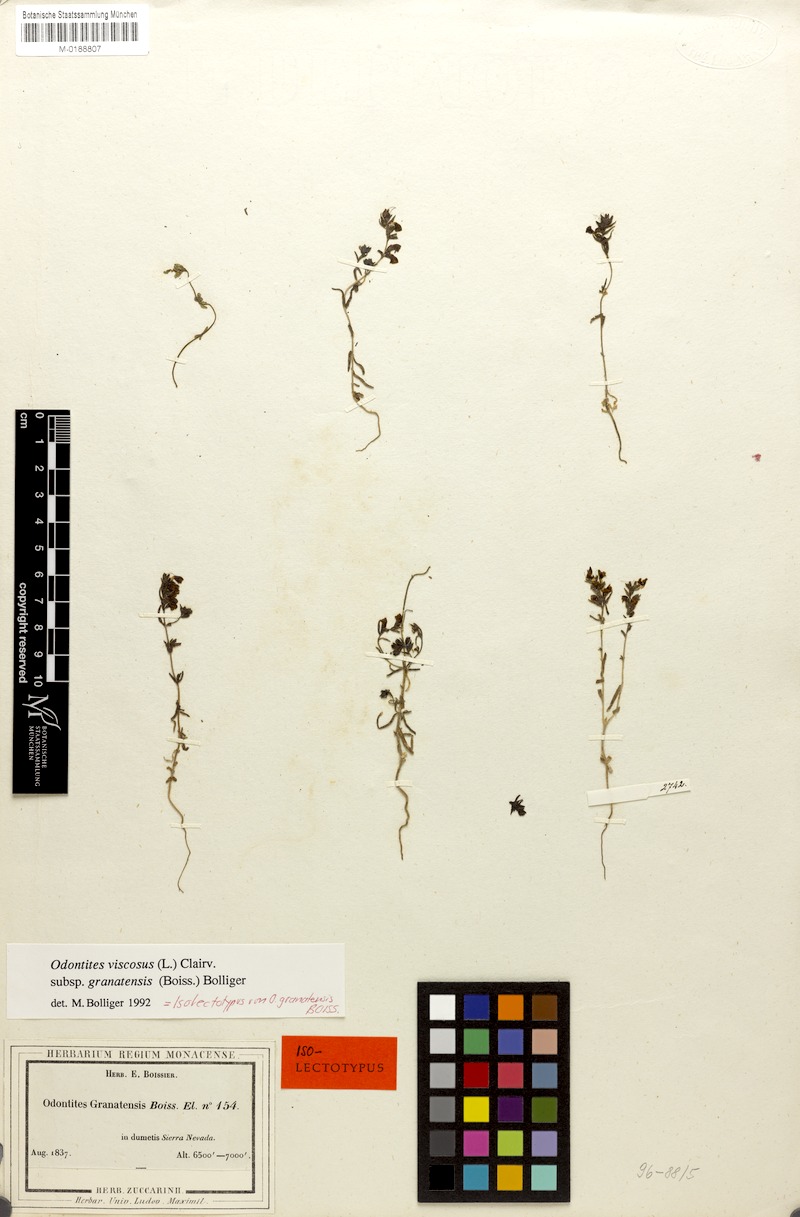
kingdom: Plantae
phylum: Tracheophyta
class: Magnoliopsida
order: Lamiales
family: Orobanchaceae
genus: Odontites
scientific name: Odontites viscosus
